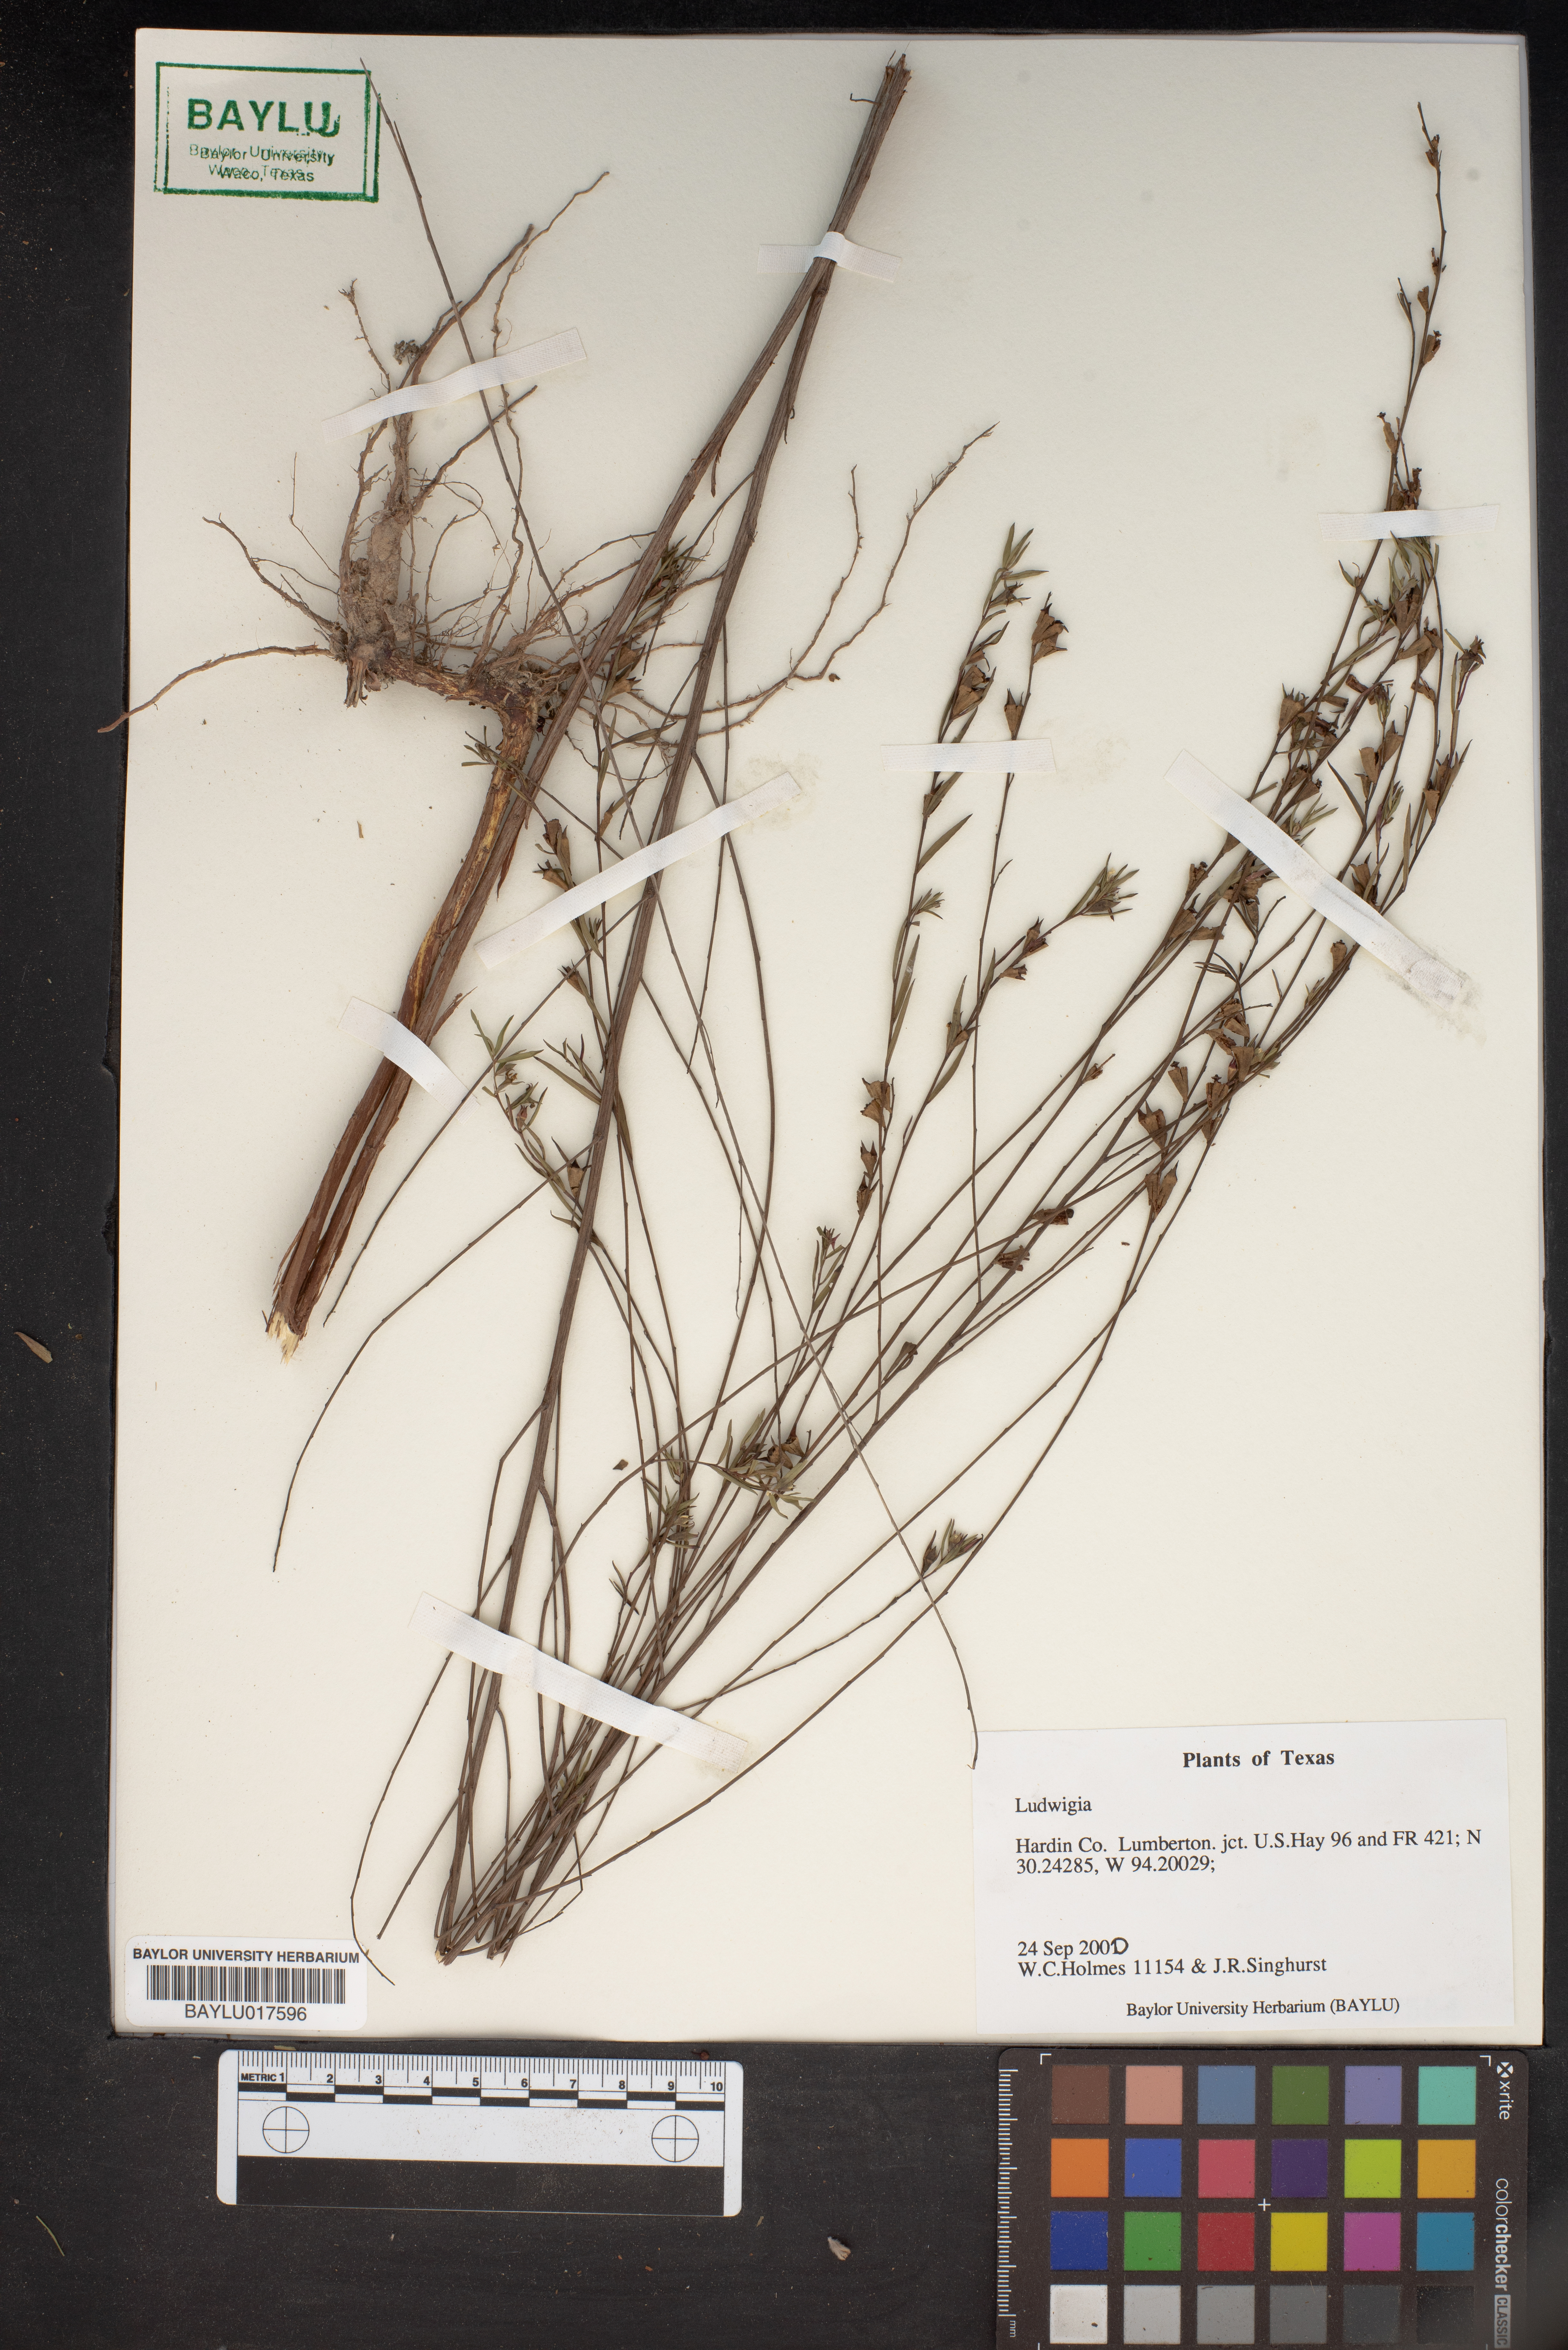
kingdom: Plantae
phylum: Tracheophyta
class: Magnoliopsida
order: Myrtales
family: Onagraceae
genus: Ludwigia
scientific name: Ludwigia
